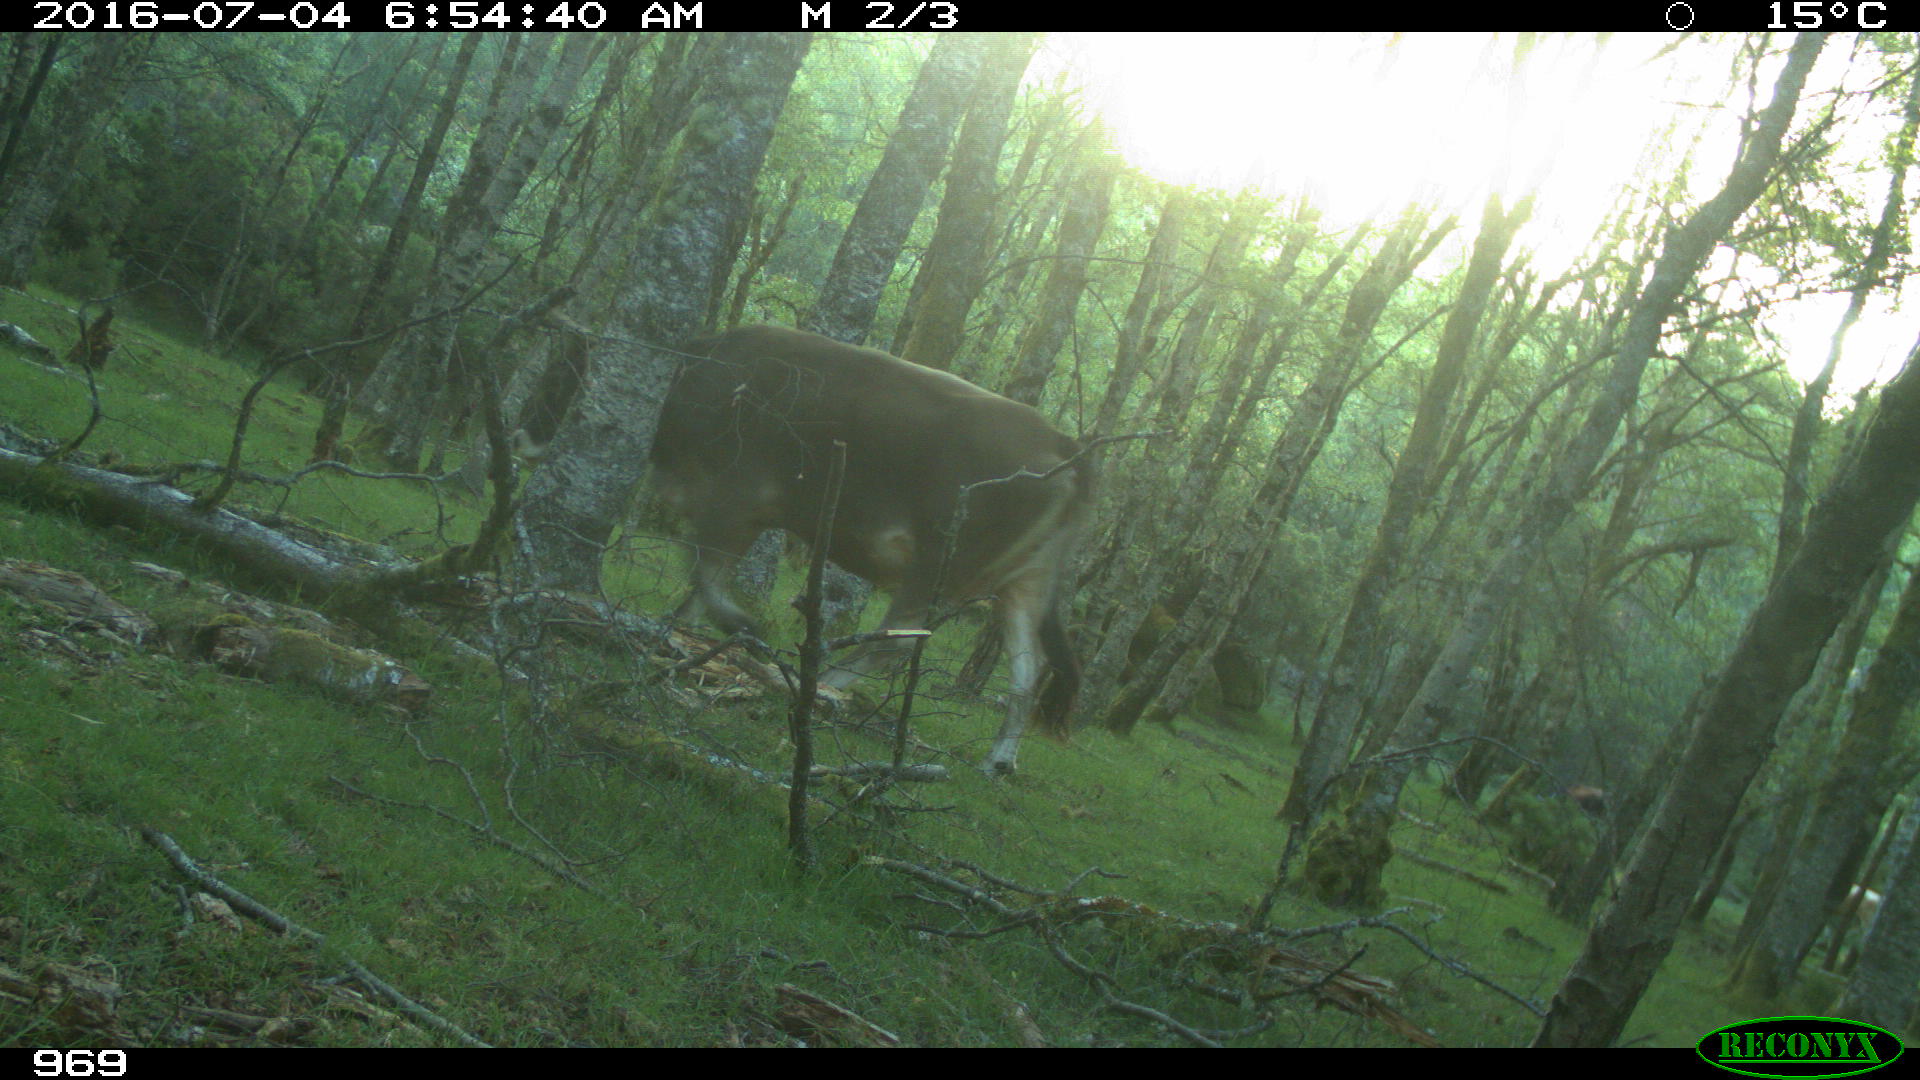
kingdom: Animalia
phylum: Chordata
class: Mammalia
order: Artiodactyla
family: Bovidae
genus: Bos
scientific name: Bos taurus
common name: Domesticated cattle
